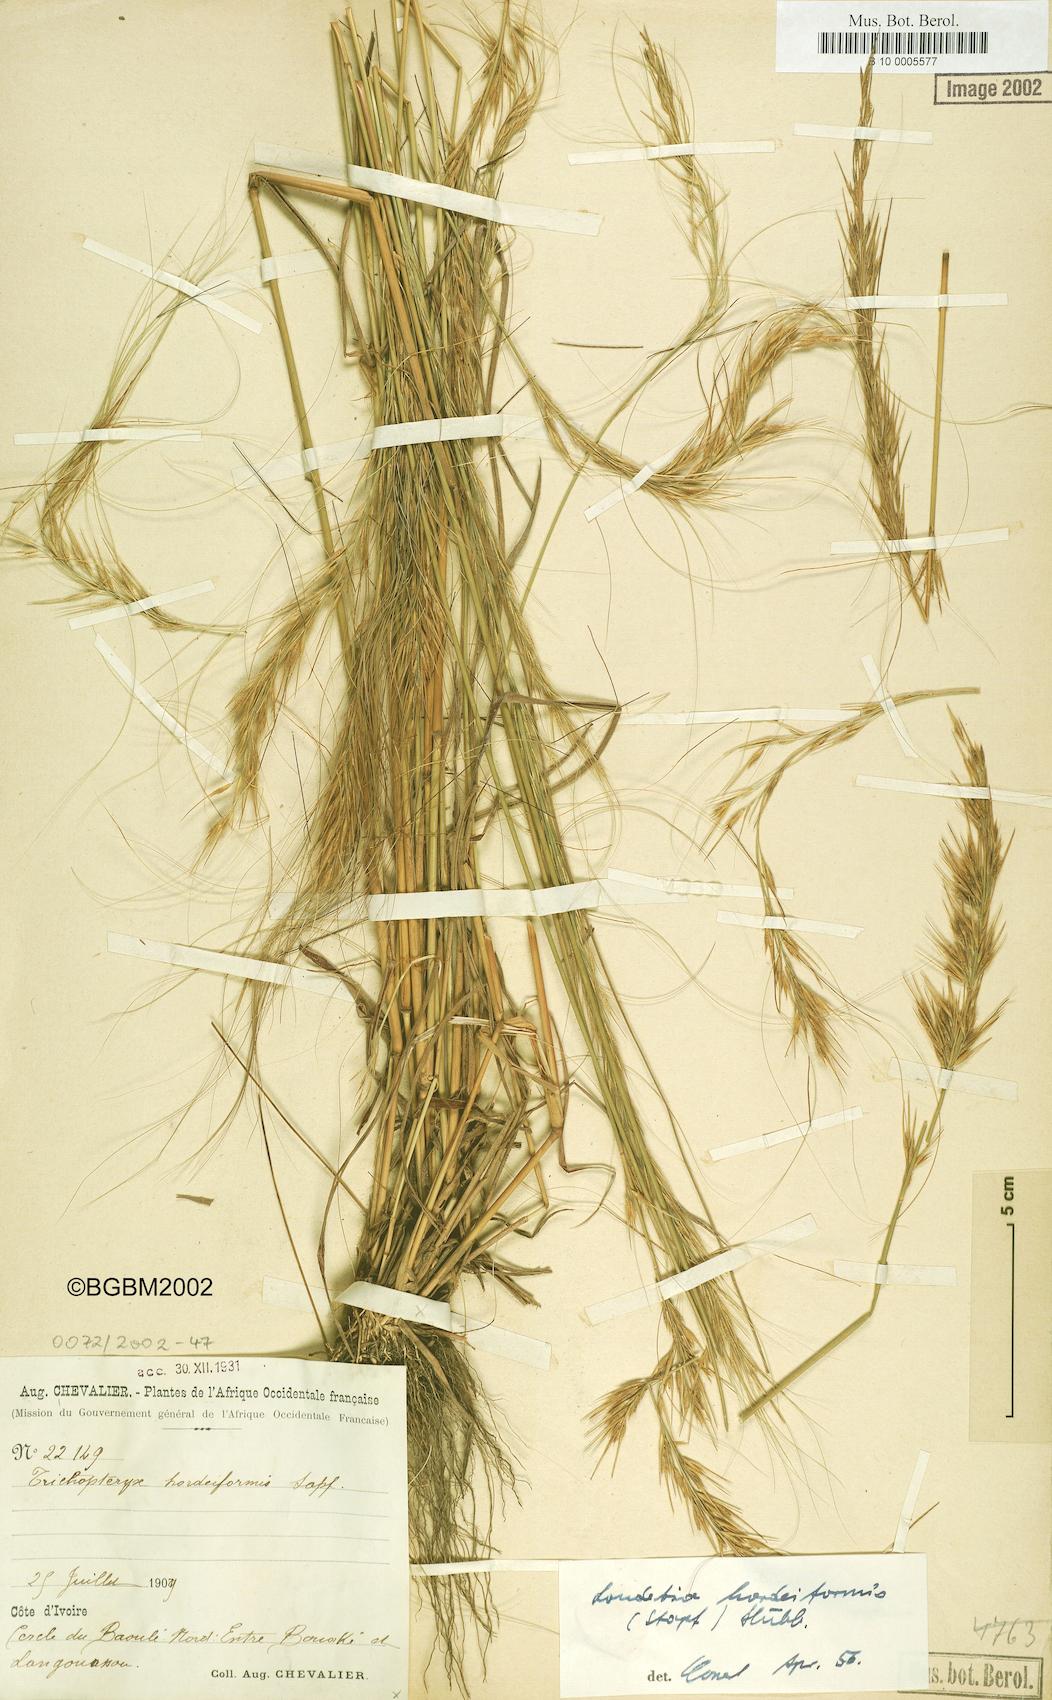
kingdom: Plantae
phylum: Tracheophyta
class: Liliopsida
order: Poales
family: Poaceae
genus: Loudetia
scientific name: Loudetia hordeiformis
